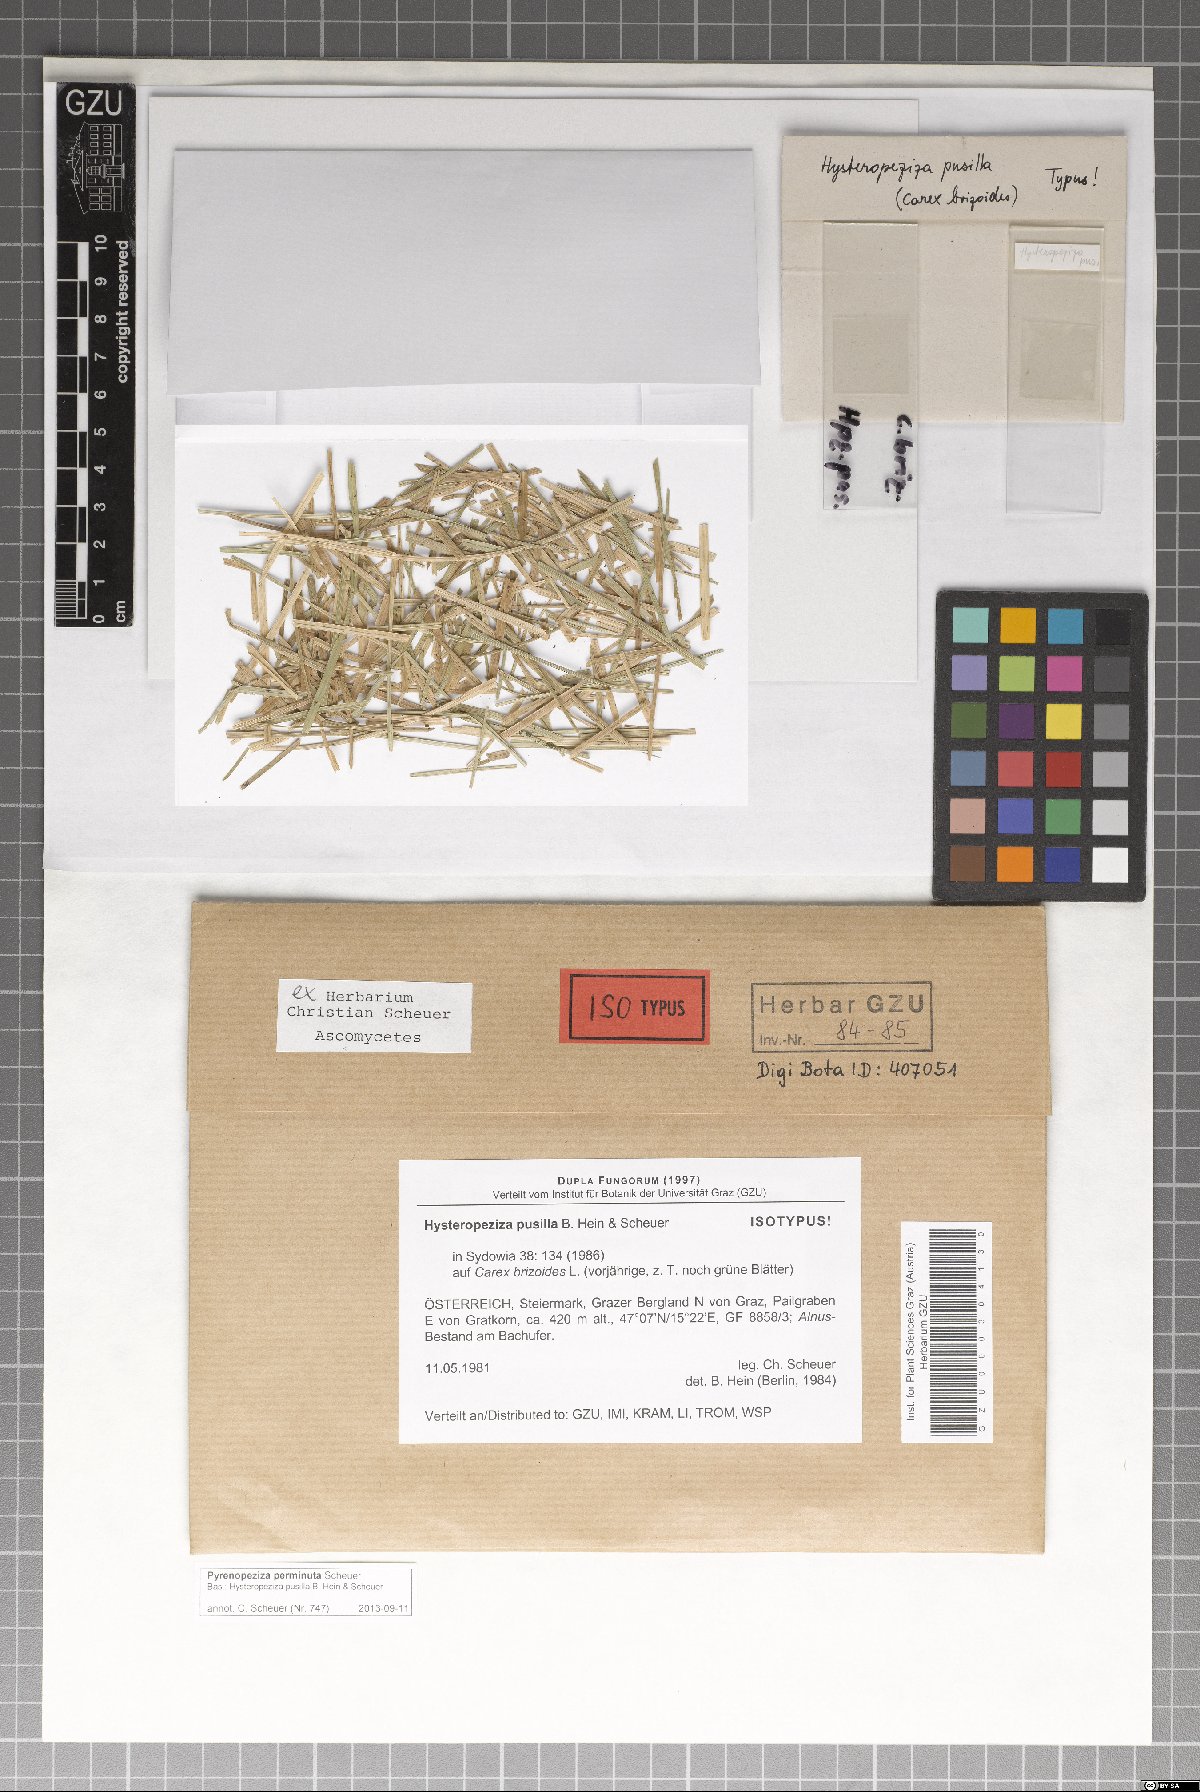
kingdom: Fungi
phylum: Ascomycota
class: Leotiomycetes
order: Helotiales
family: Ploettnerulaceae
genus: Pyrenopeziza
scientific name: Pyrenopeziza perminuta
